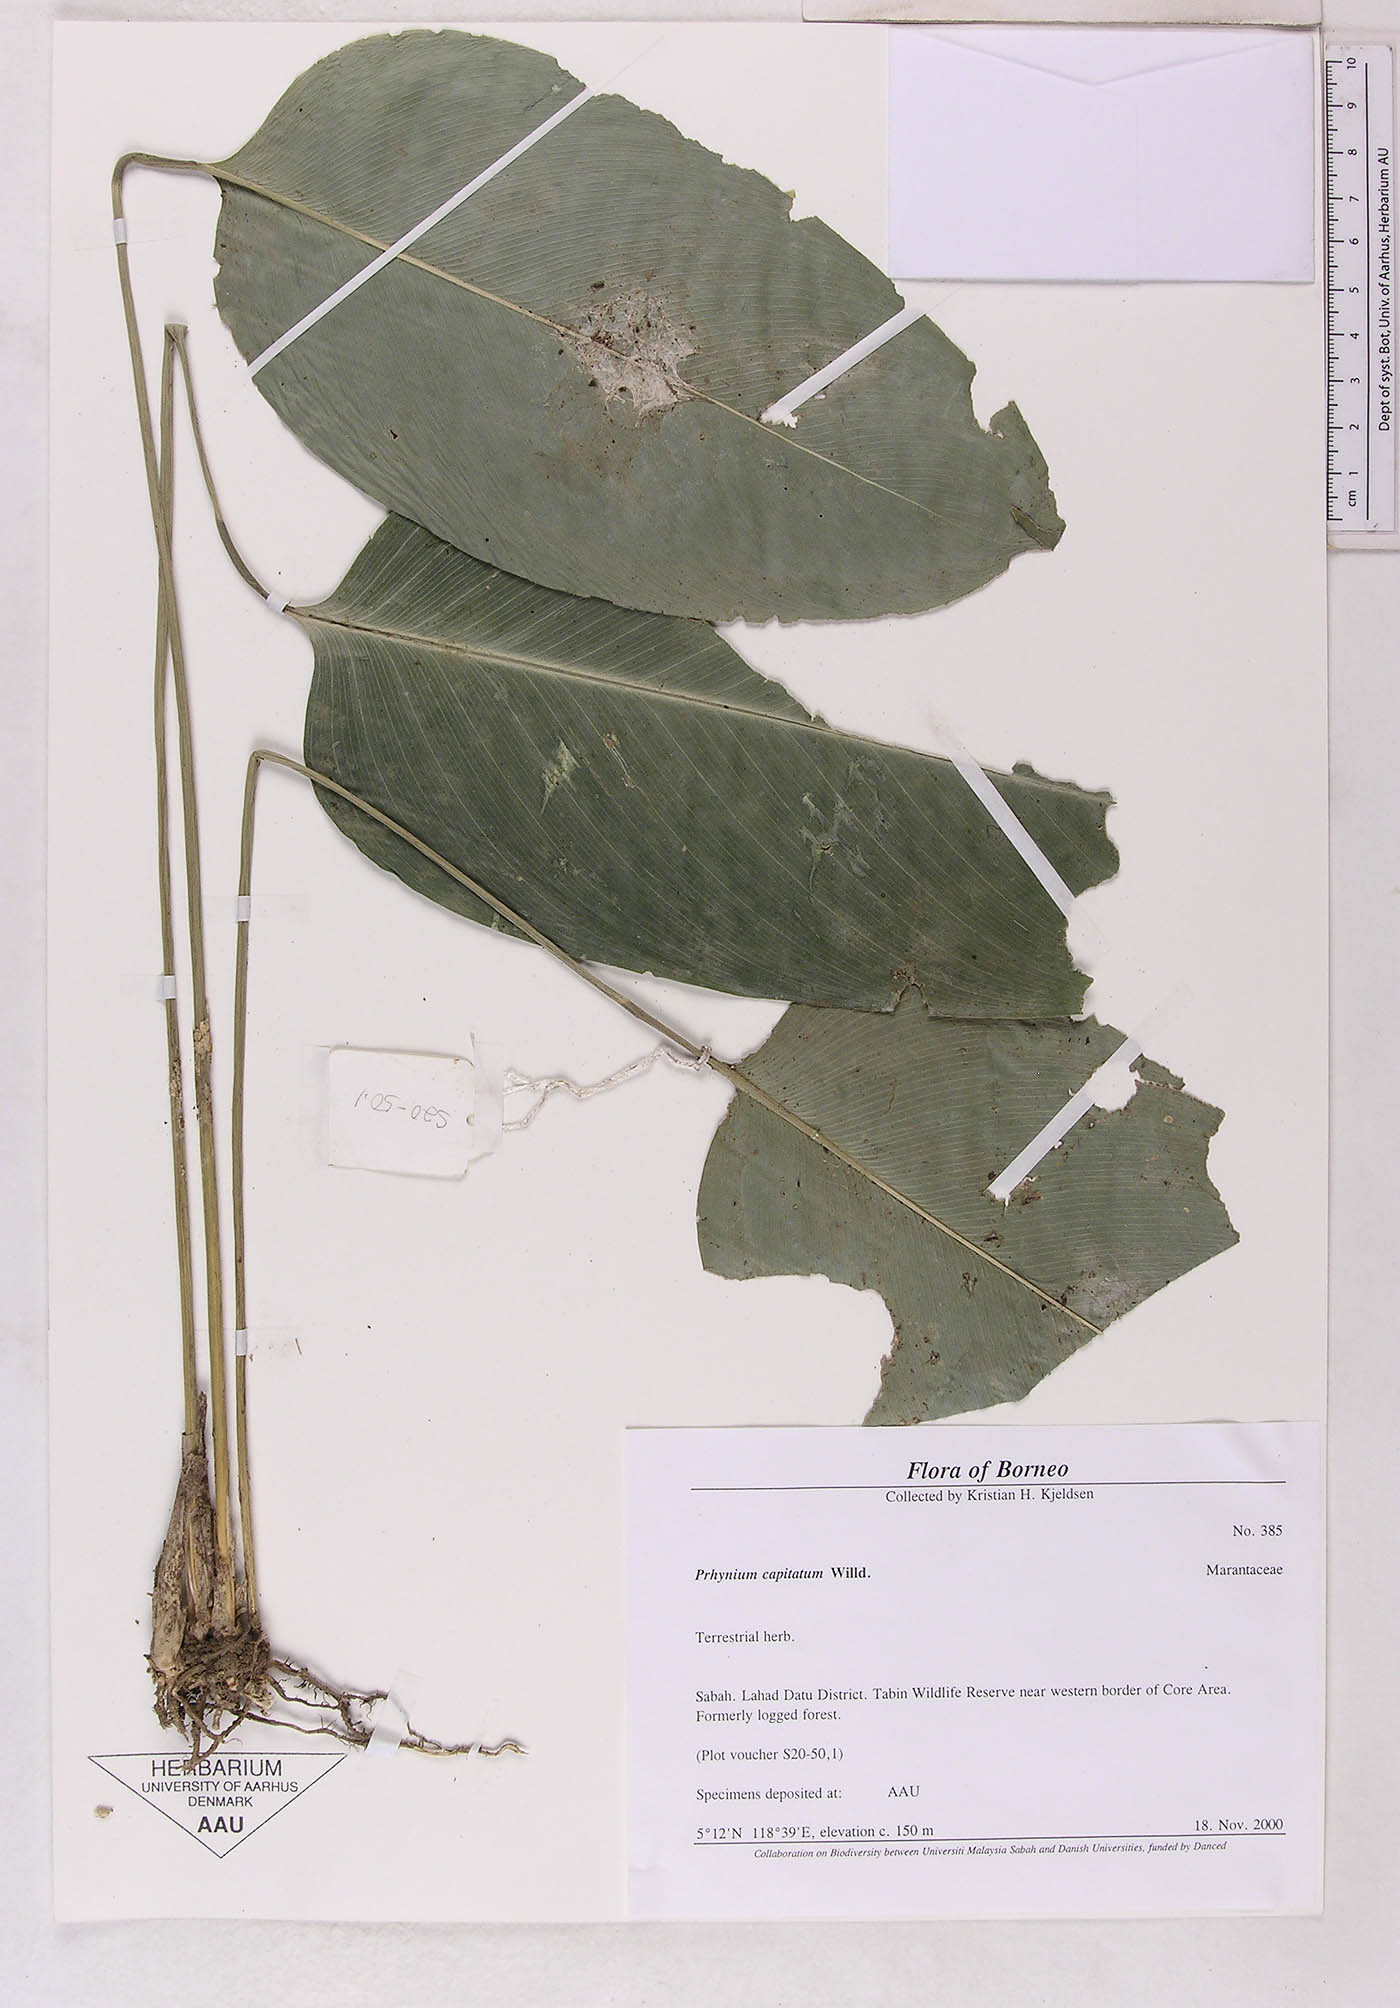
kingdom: Plantae
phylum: Tracheophyta
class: Liliopsida
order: Zingiberales
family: Marantaceae
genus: Phrynium
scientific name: Phrynium pubinerve
